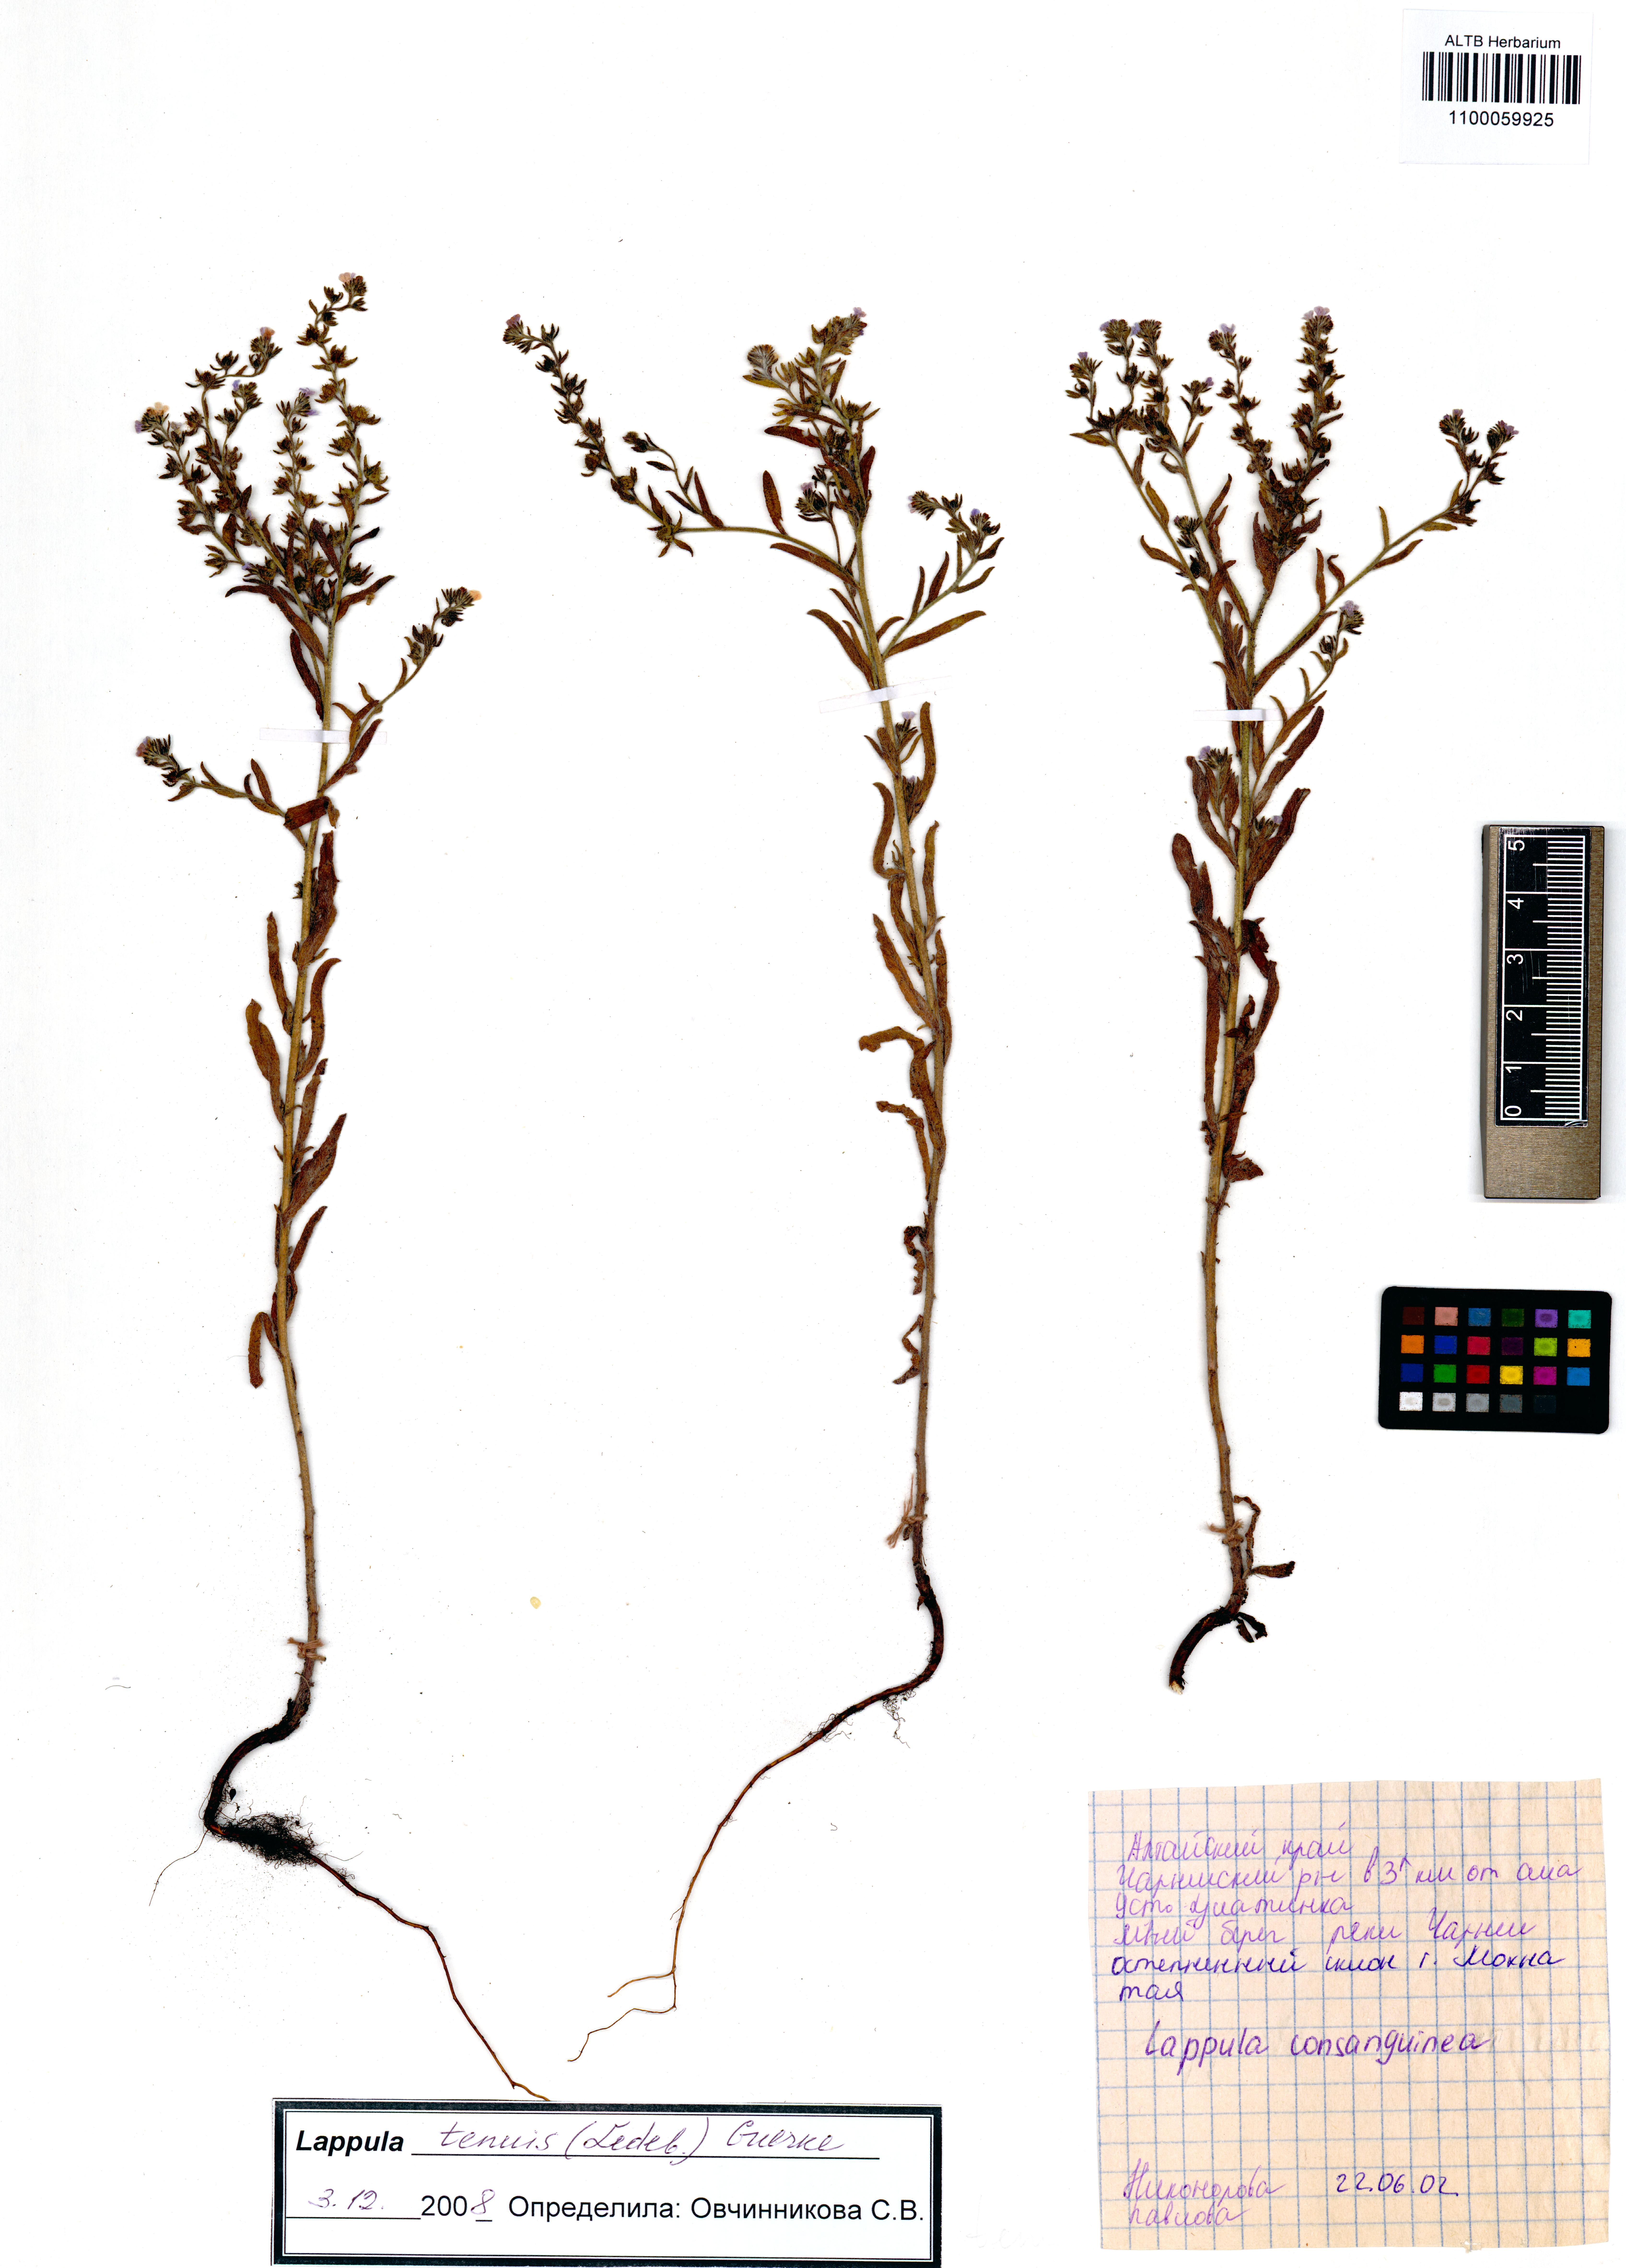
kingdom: Plantae
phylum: Tracheophyta
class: Magnoliopsida
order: Boraginales
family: Boraginaceae
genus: Lappula
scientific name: Lappula tenuis
